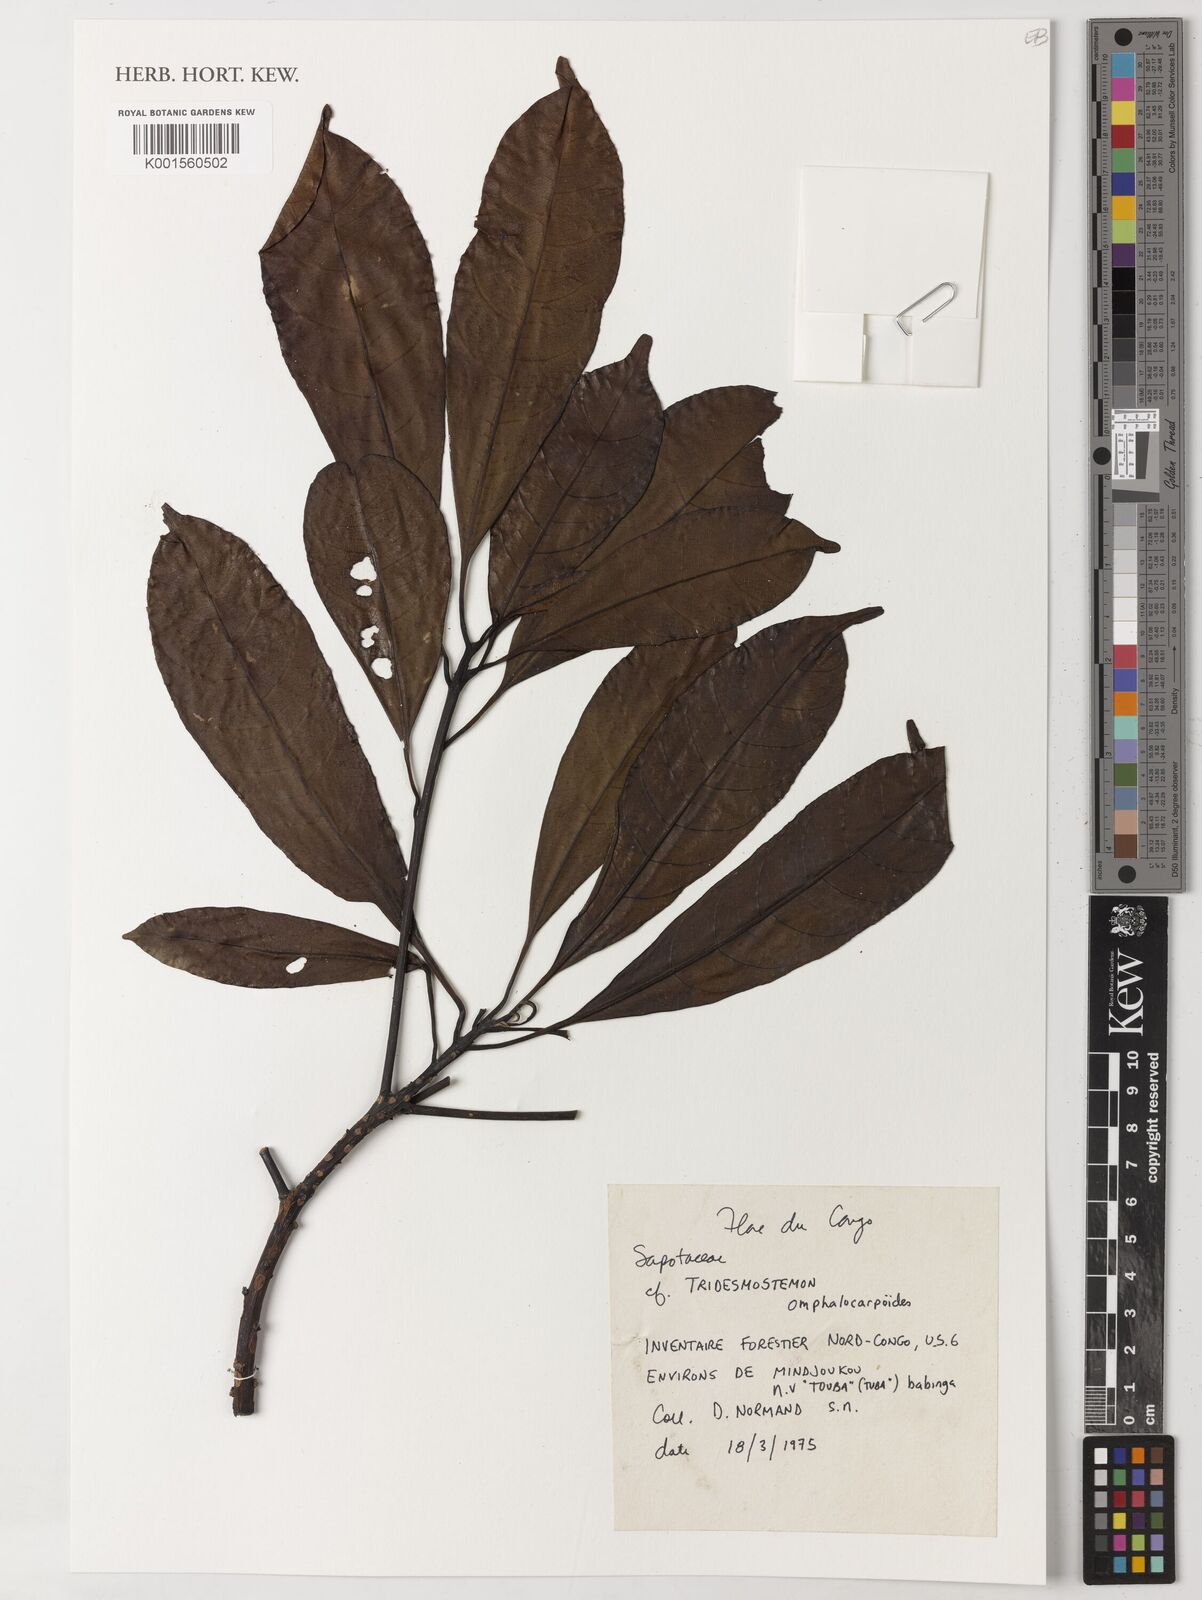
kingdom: Plantae
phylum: Tracheophyta
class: Magnoliopsida
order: Ericales
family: Sapotaceae
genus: Tridesmostemon
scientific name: Tridesmostemon omphalocarpoides
